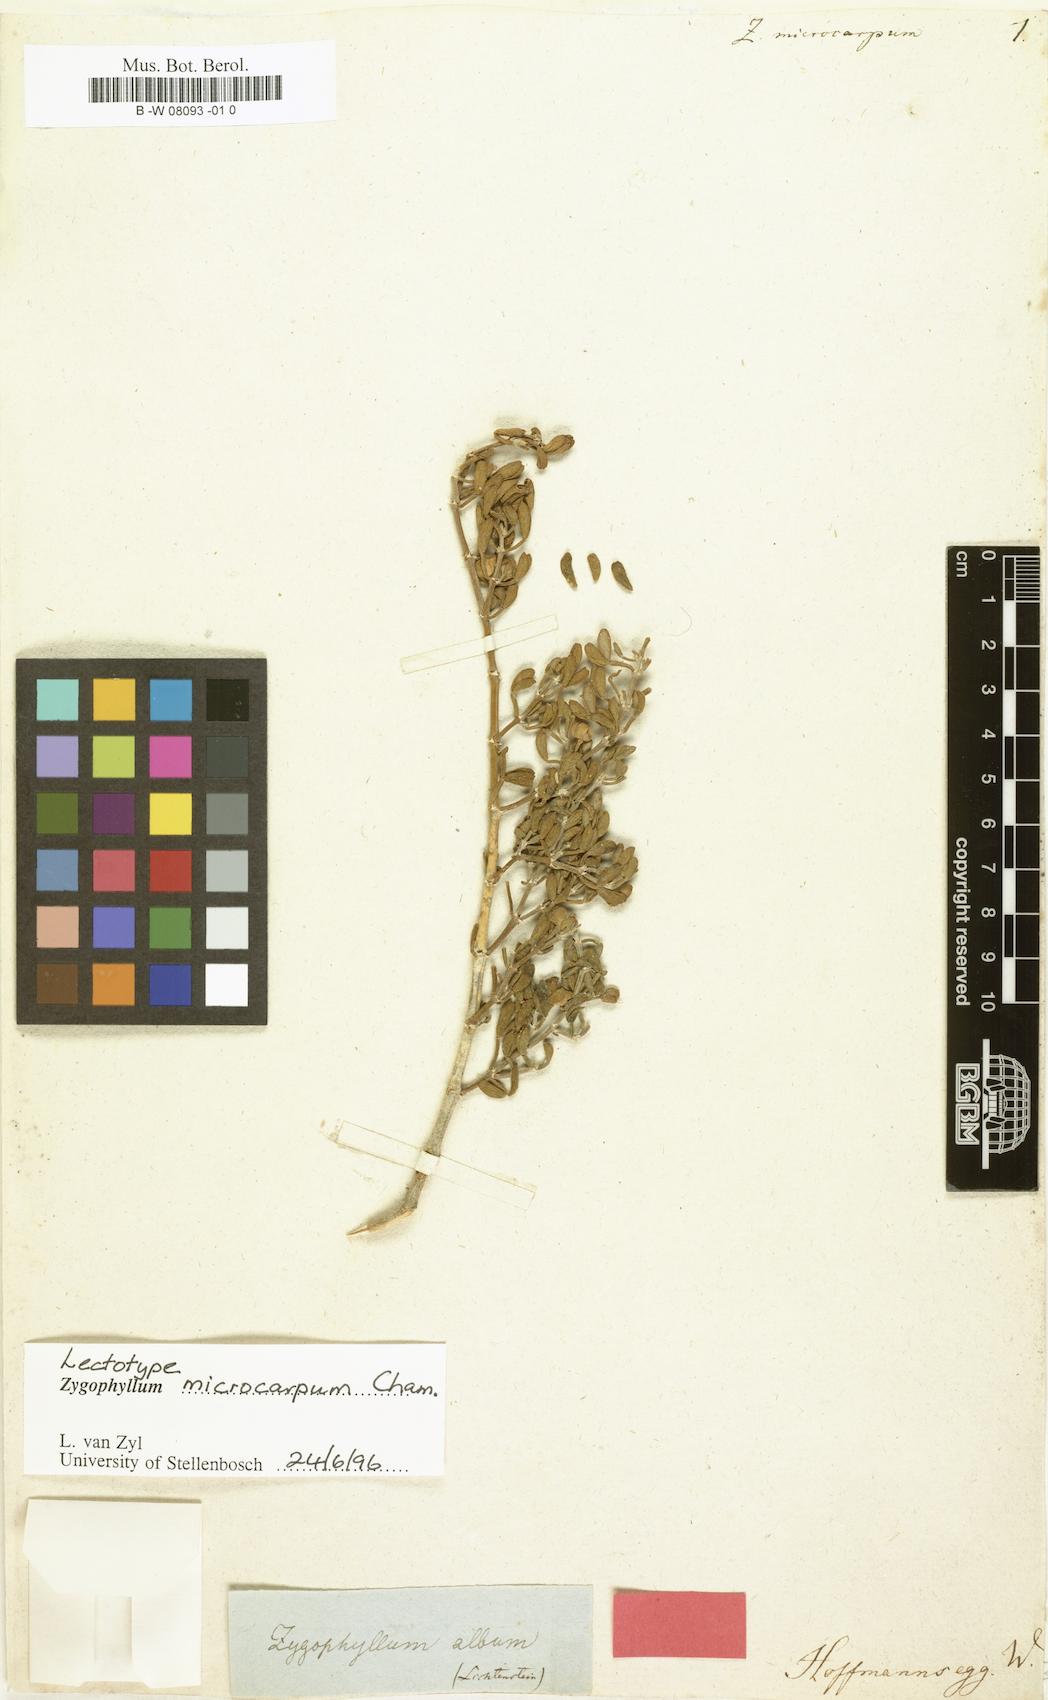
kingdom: Plantae
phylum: Tracheophyta
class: Magnoliopsida
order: Zygophyllales
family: Zygophyllaceae
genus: Tetraena
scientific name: Tetraena microcarpa
